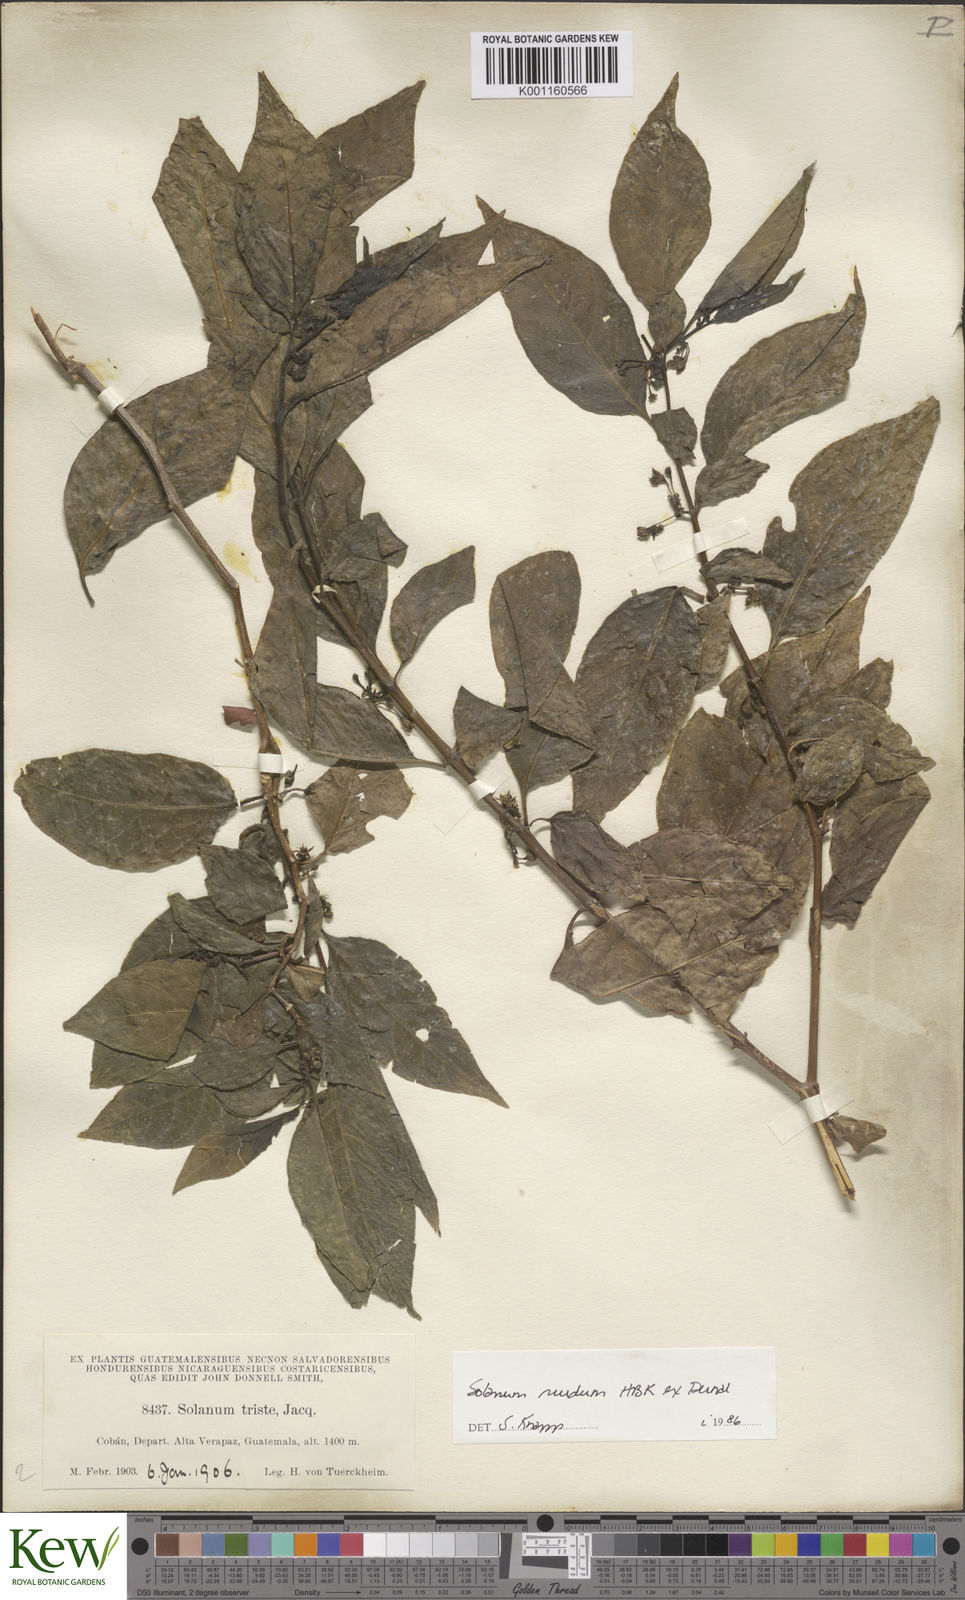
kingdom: Plantae
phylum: Tracheophyta
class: Magnoliopsida
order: Solanales
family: Solanaceae
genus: Solanum
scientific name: Solanum nudum
